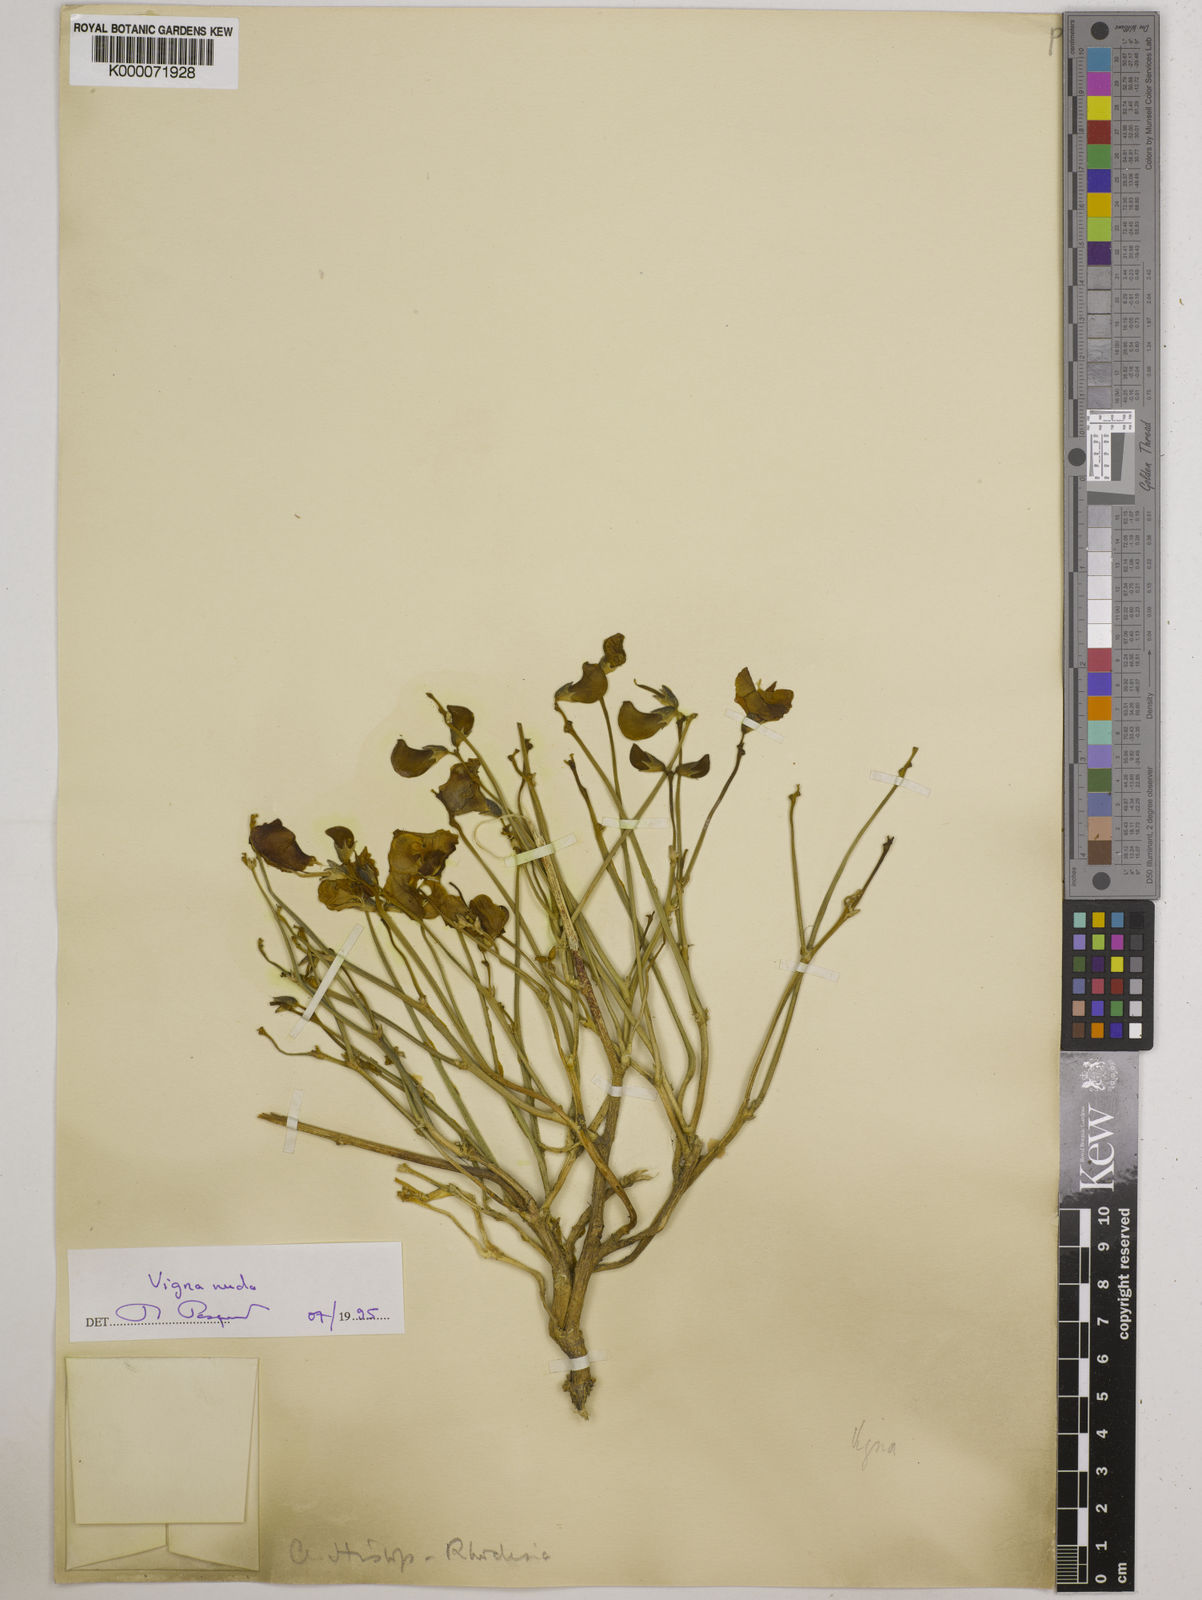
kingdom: Plantae
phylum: Tracheophyta
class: Magnoliopsida
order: Fabales
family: Fabaceae
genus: Vigna
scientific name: Vigna antunesii
